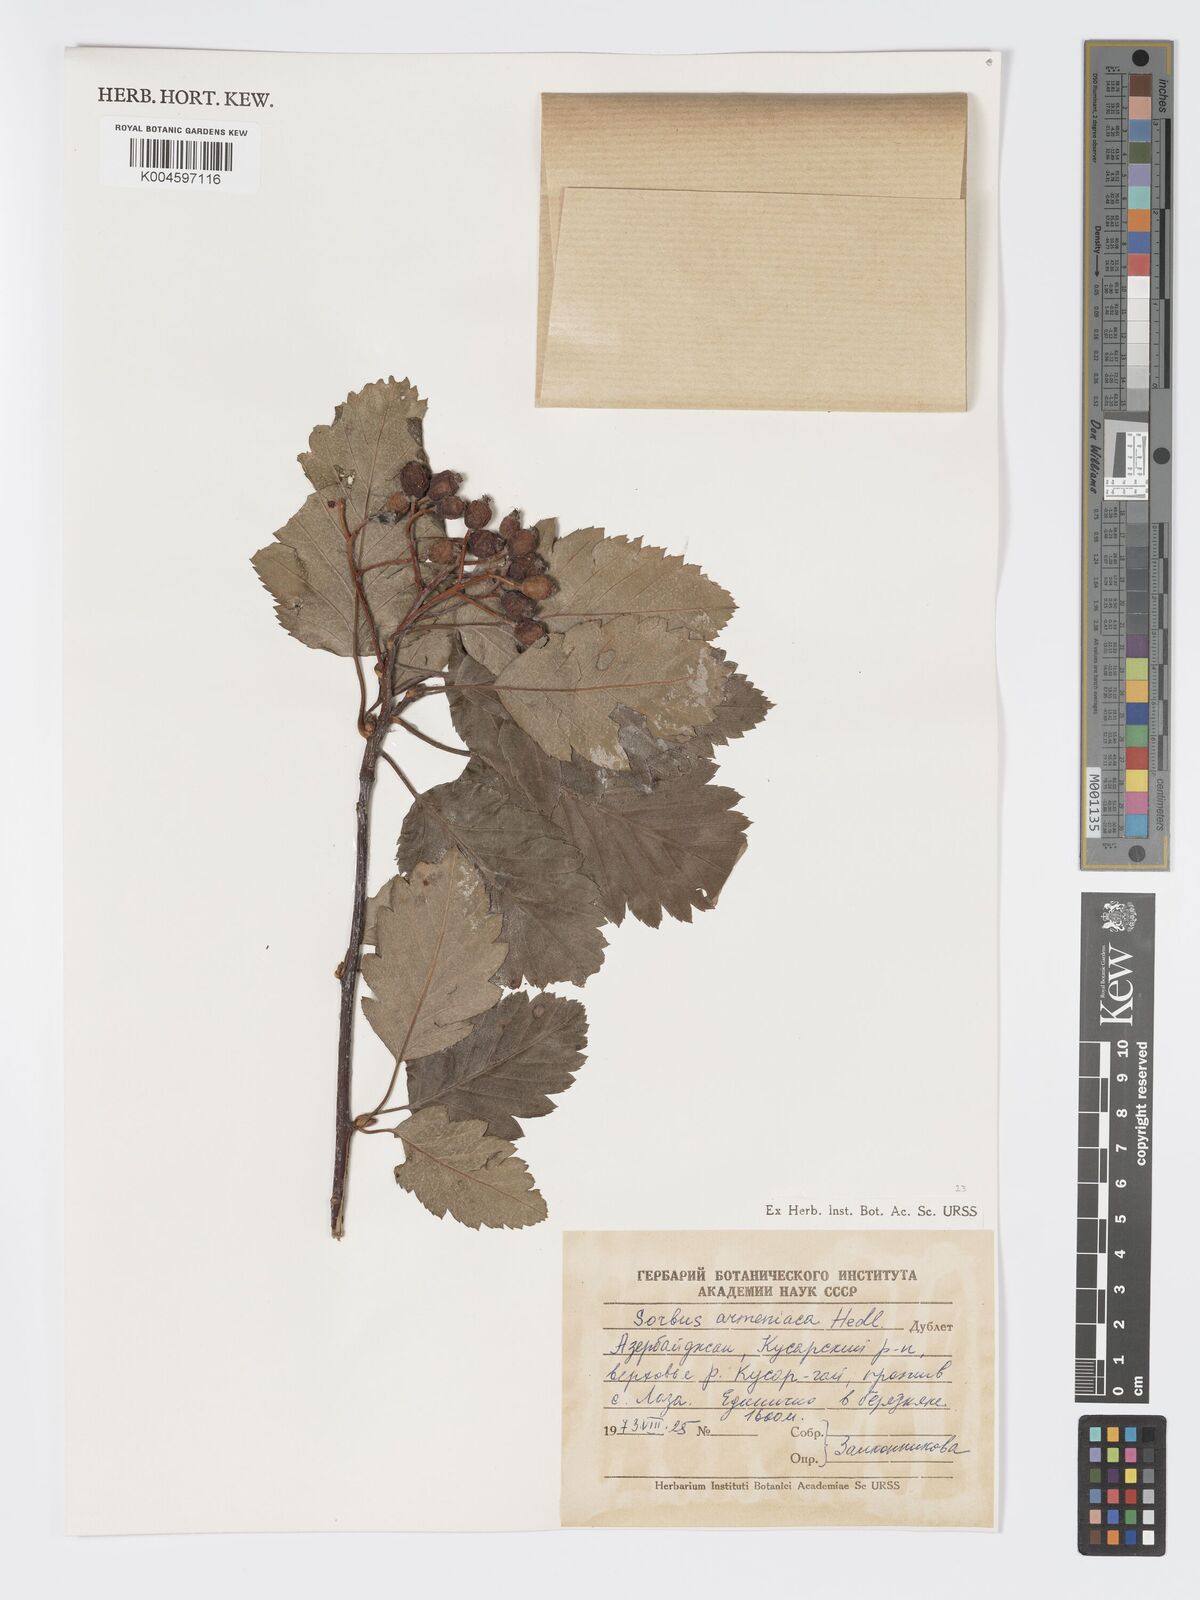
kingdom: Plantae
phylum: Tracheophyta
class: Magnoliopsida
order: Rosales
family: Rosaceae
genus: Hedlundia
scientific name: Hedlundia armeniaca
